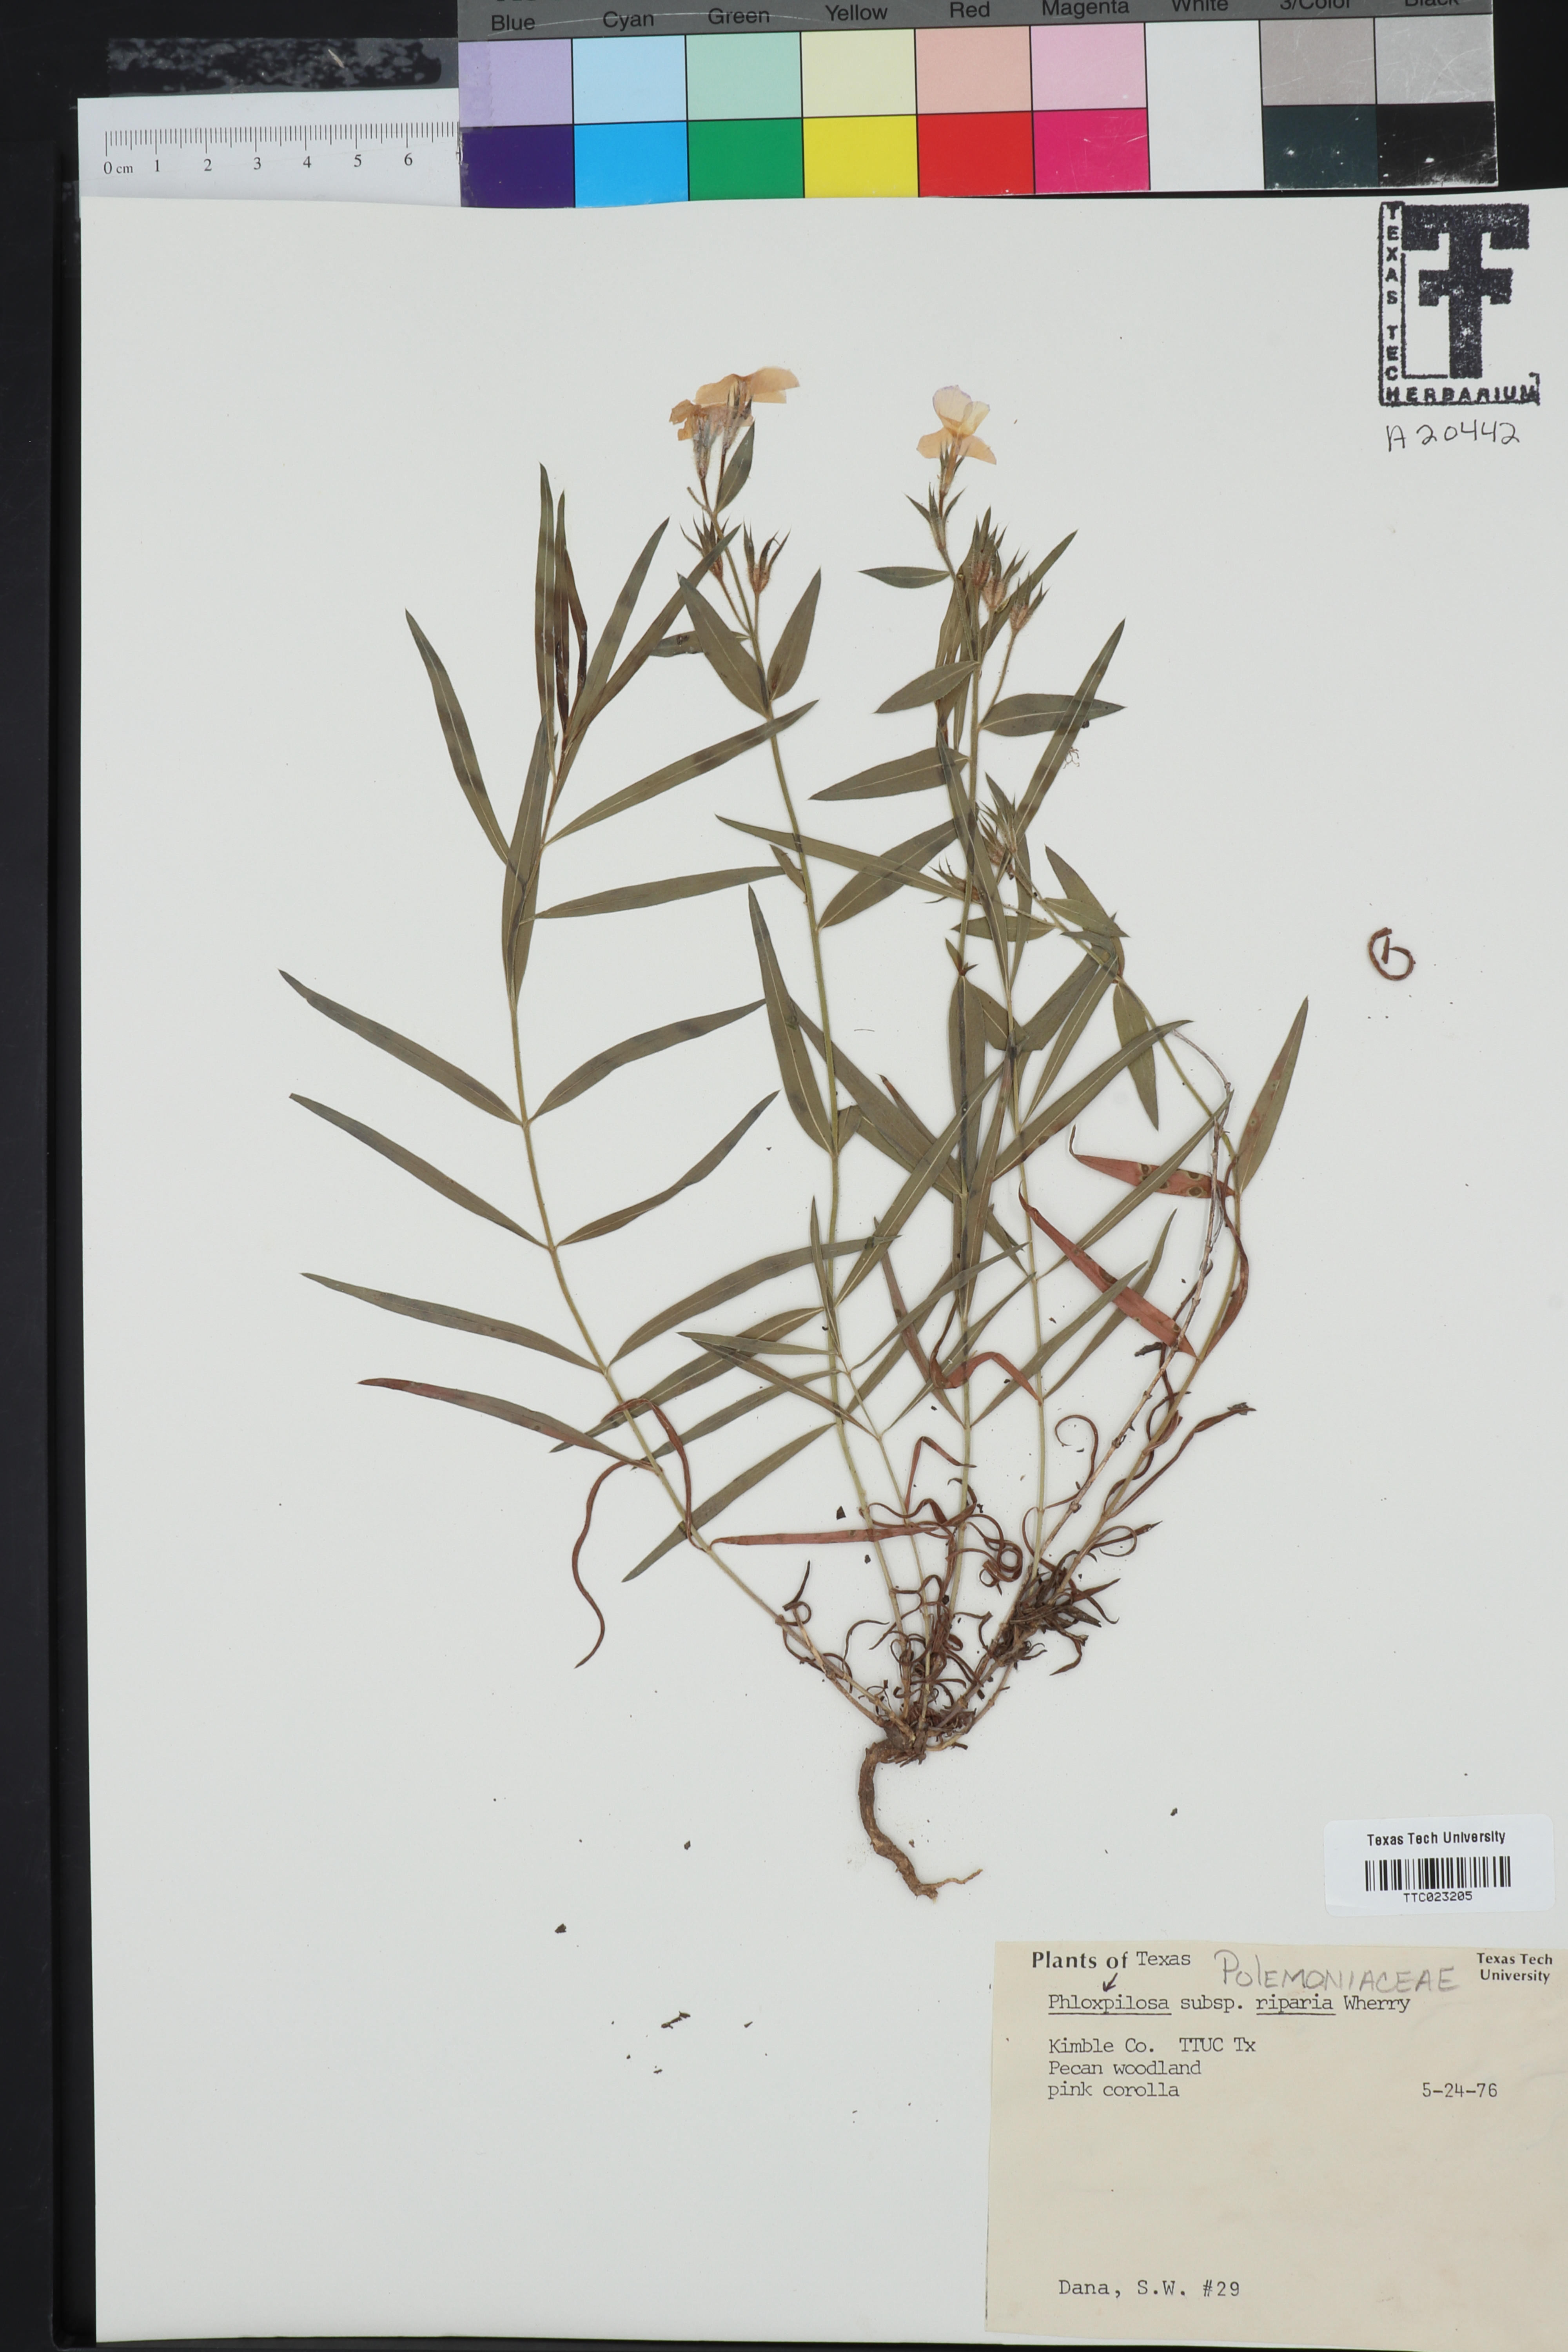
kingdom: Plantae
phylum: Tracheophyta
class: Magnoliopsida
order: Ericales
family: Polemoniaceae
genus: Phlox
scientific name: Phlox pilosa
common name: Prairie phlox
